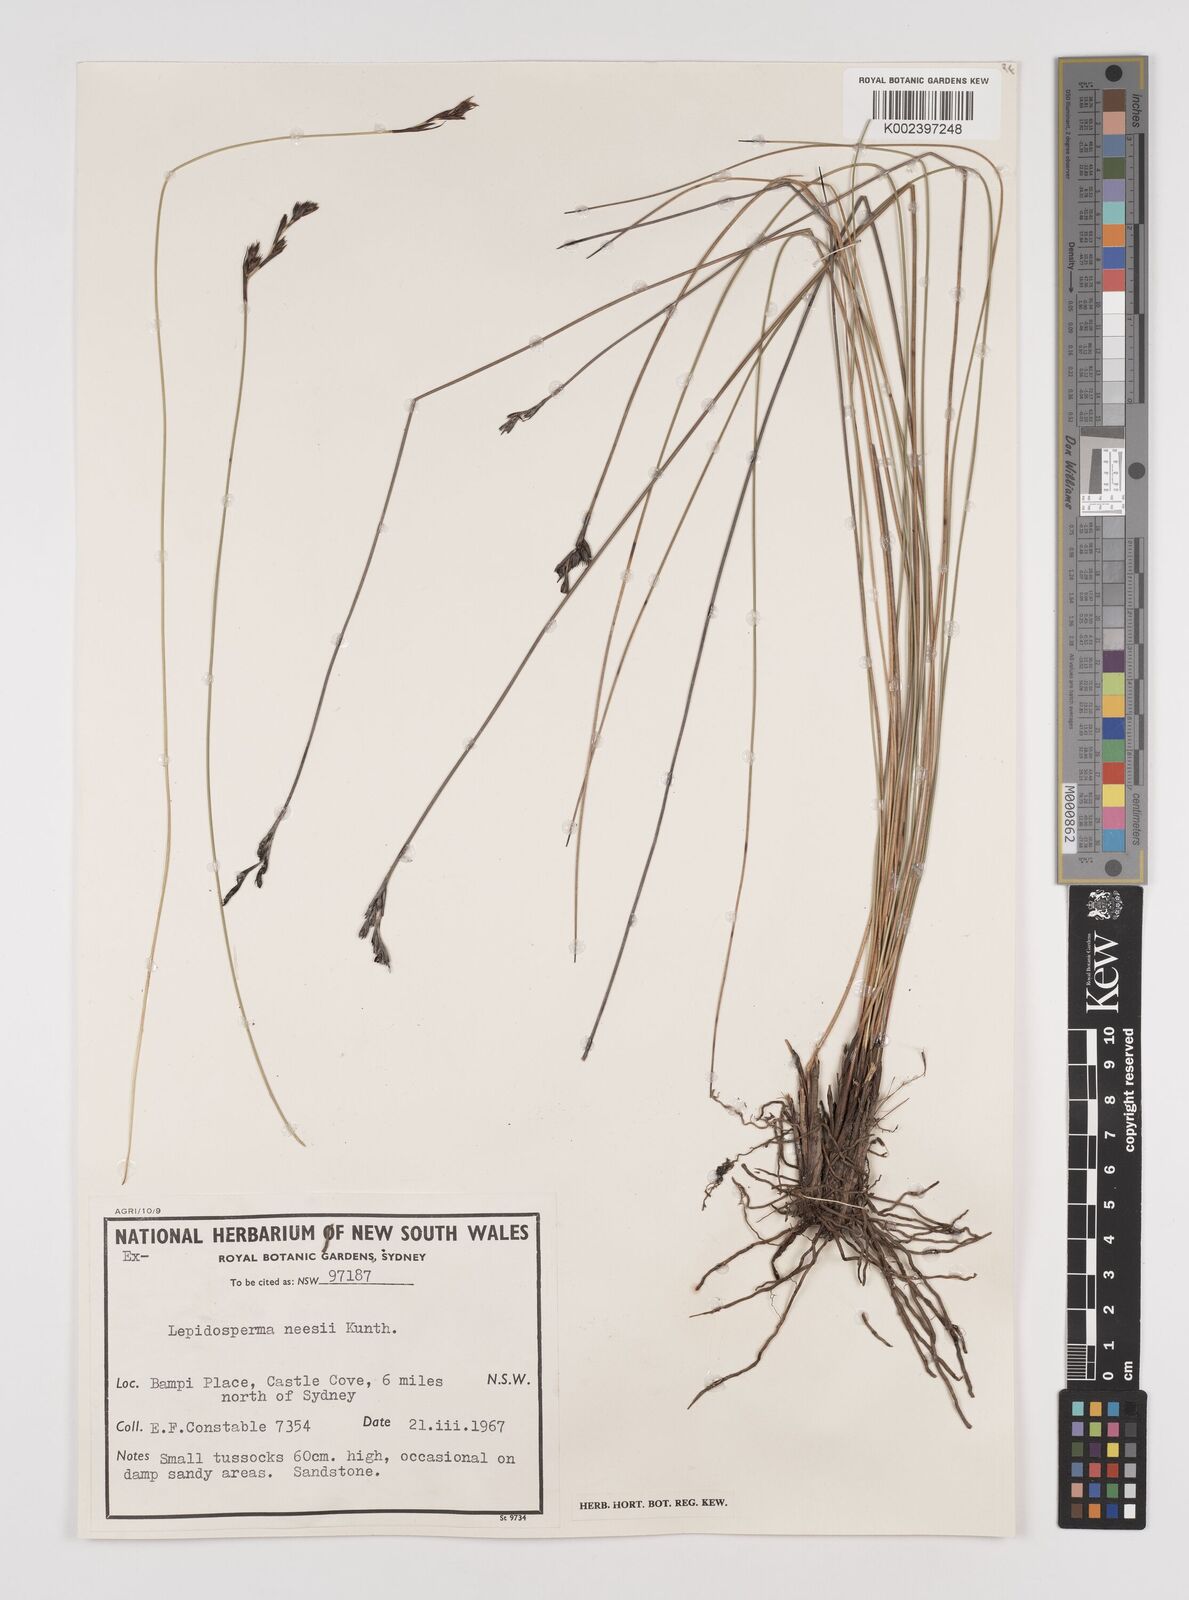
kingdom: Plantae
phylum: Tracheophyta
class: Liliopsida
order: Poales
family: Cyperaceae
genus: Lepidosperma
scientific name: Lepidosperma neesii
